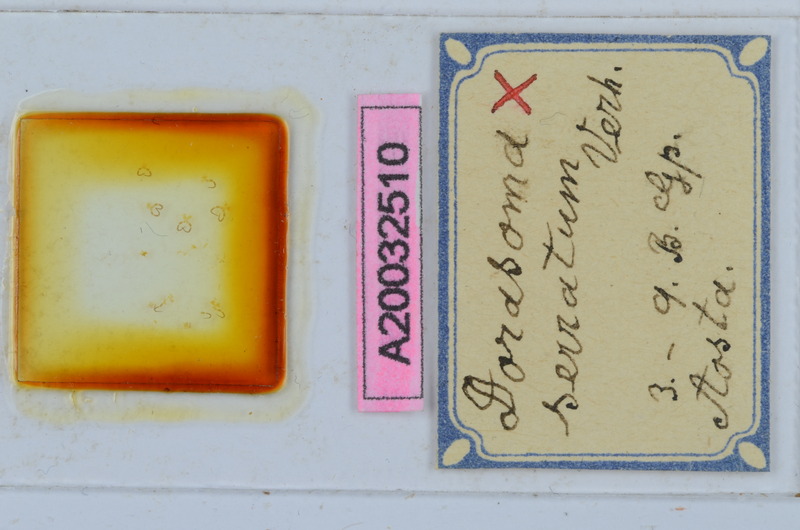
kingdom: Animalia
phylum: Arthropoda
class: Diplopoda
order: Chordeumatida
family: Craspedosomatidae
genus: Bomogona
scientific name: Bomogona helvetica
